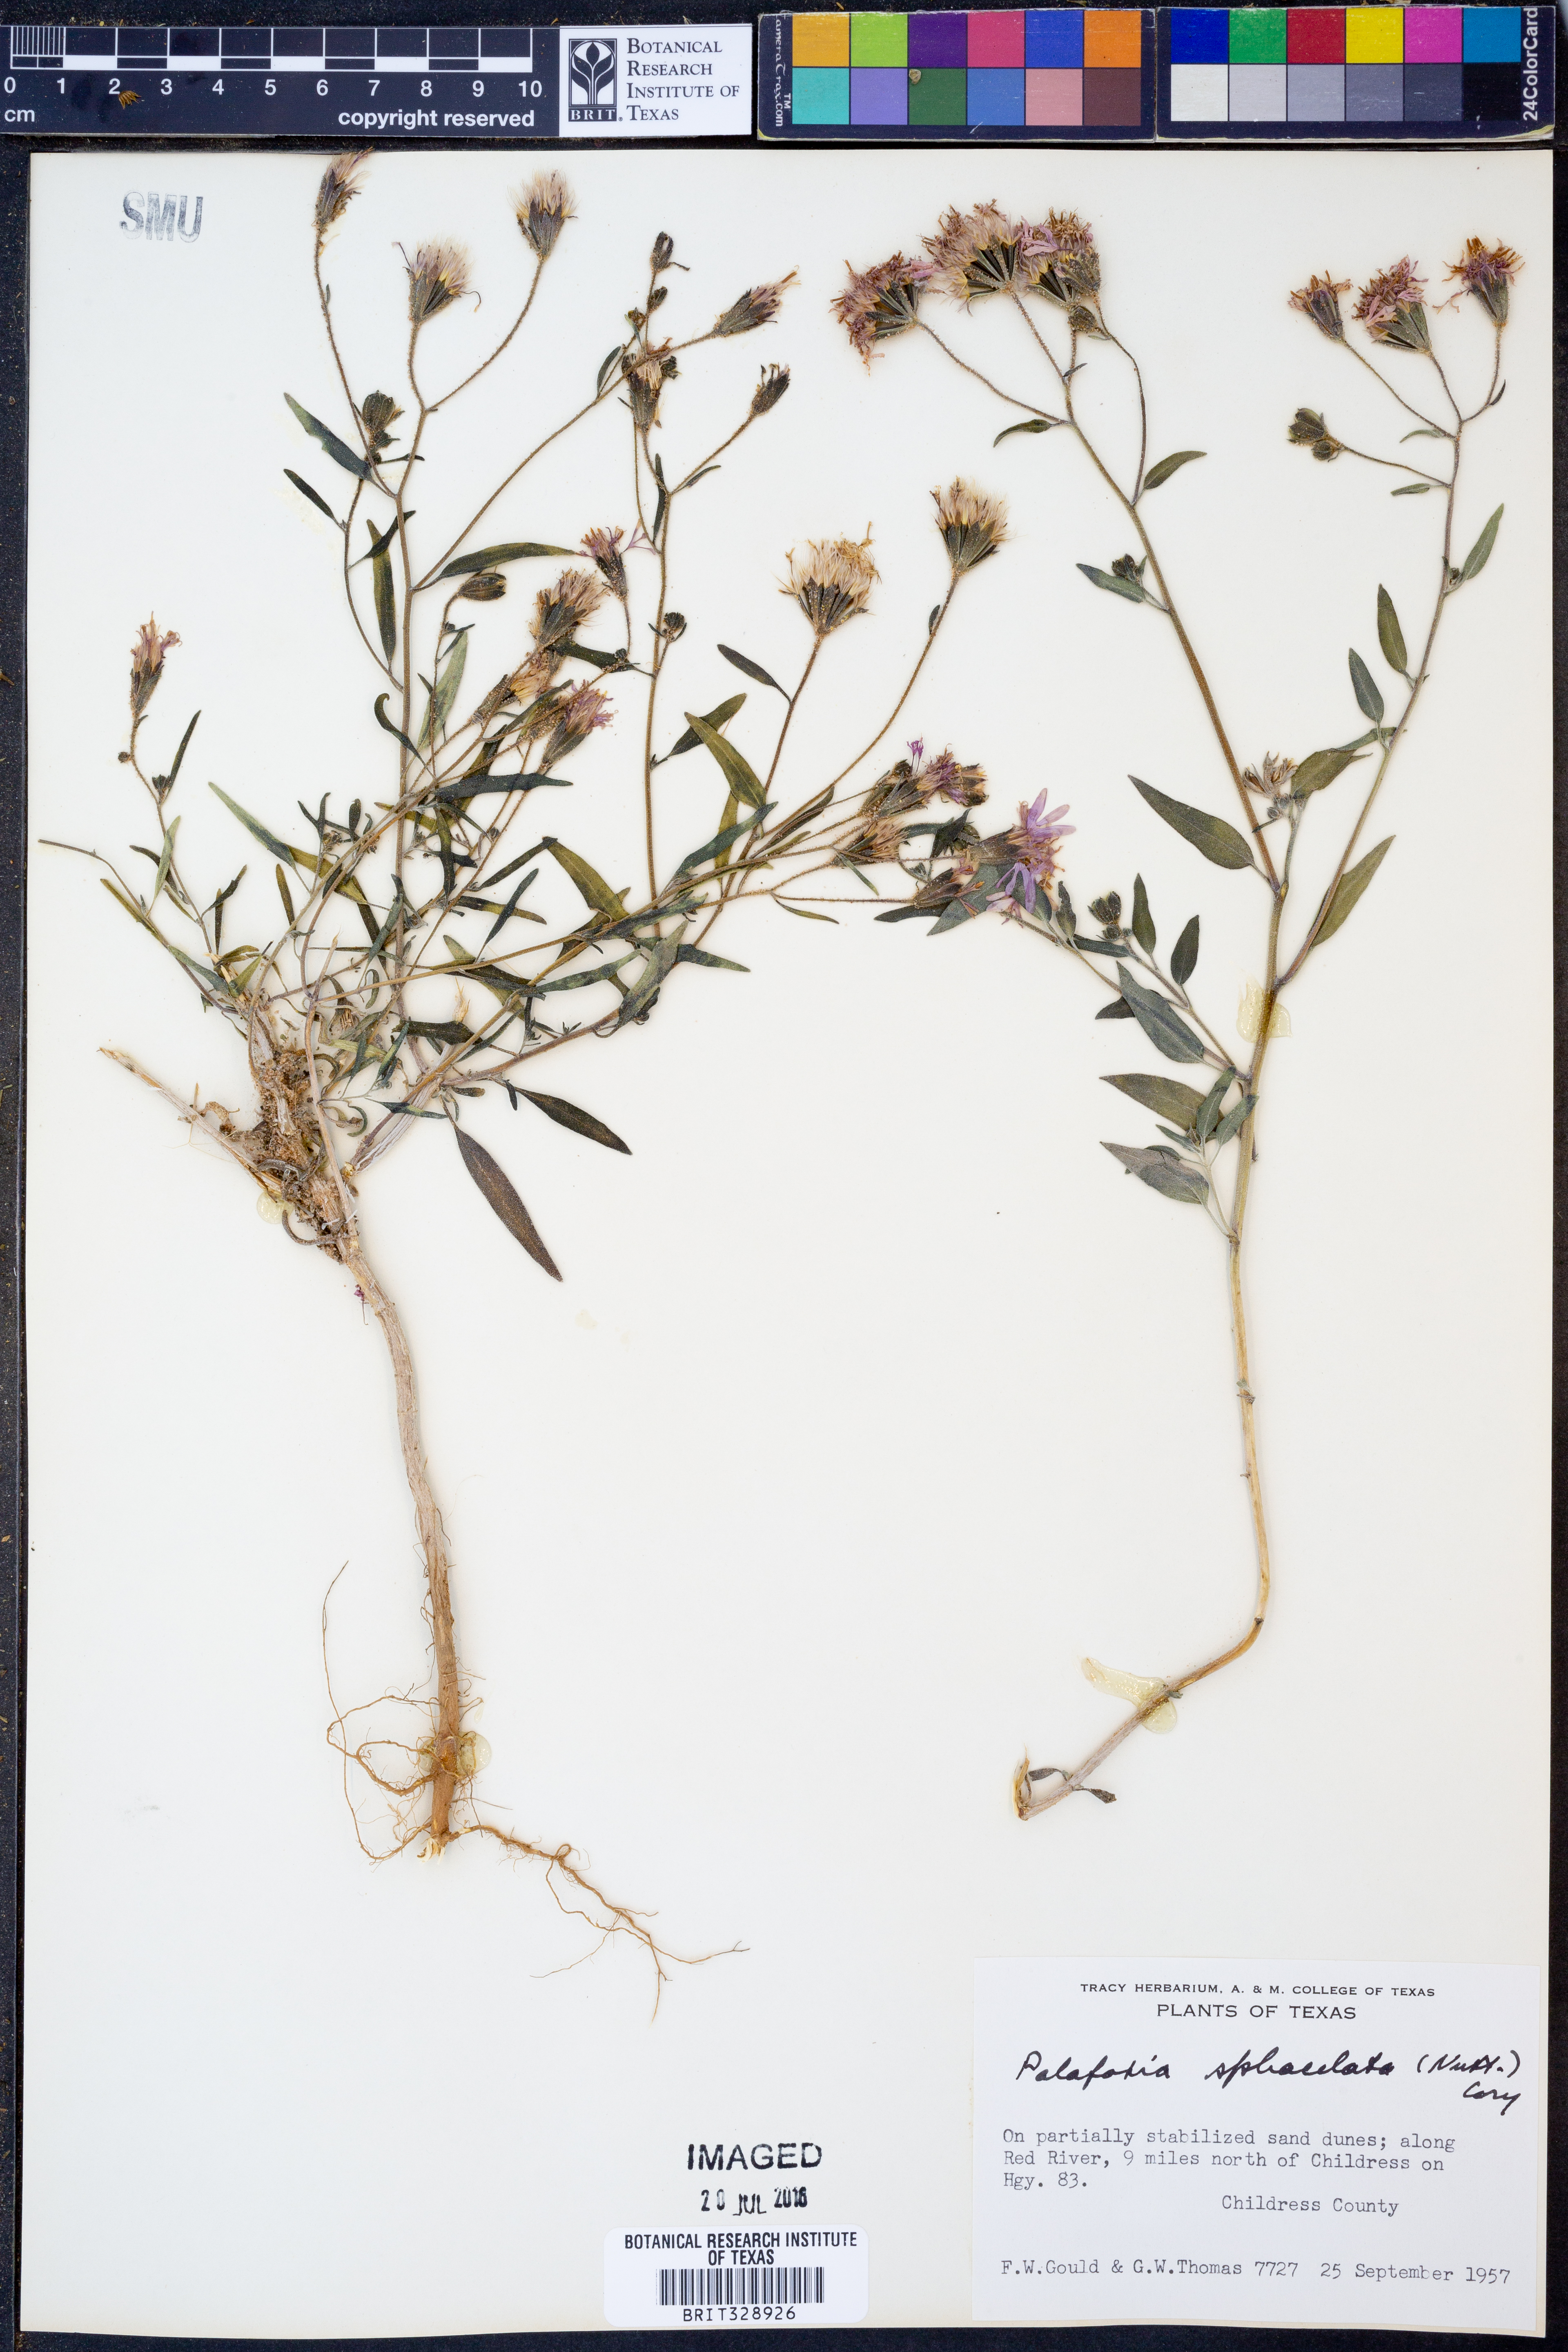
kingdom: Plantae
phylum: Tracheophyta
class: Magnoliopsida
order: Asterales
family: Asteraceae
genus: Palafoxia
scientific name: Palafoxia sphacelata
